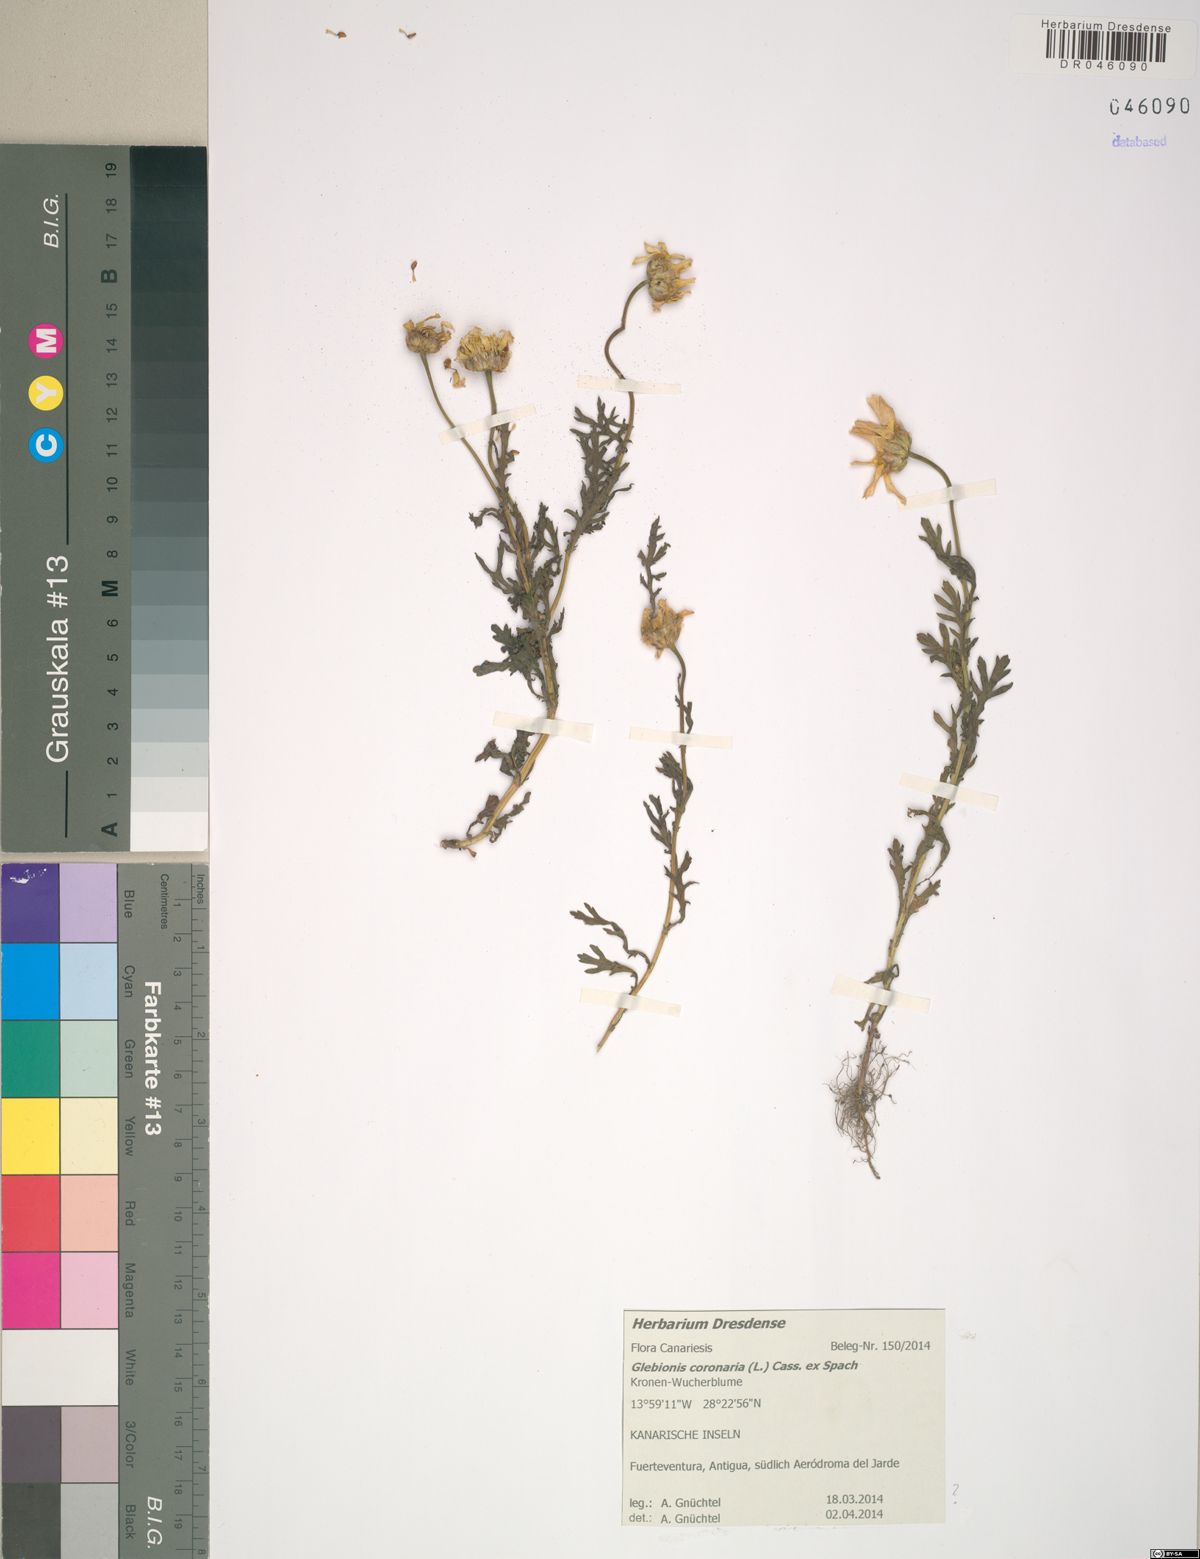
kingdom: Plantae
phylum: Tracheophyta
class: Magnoliopsida
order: Asterales
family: Asteraceae
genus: Glebionis
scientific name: Glebionis coronaria
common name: Crowndaisy
